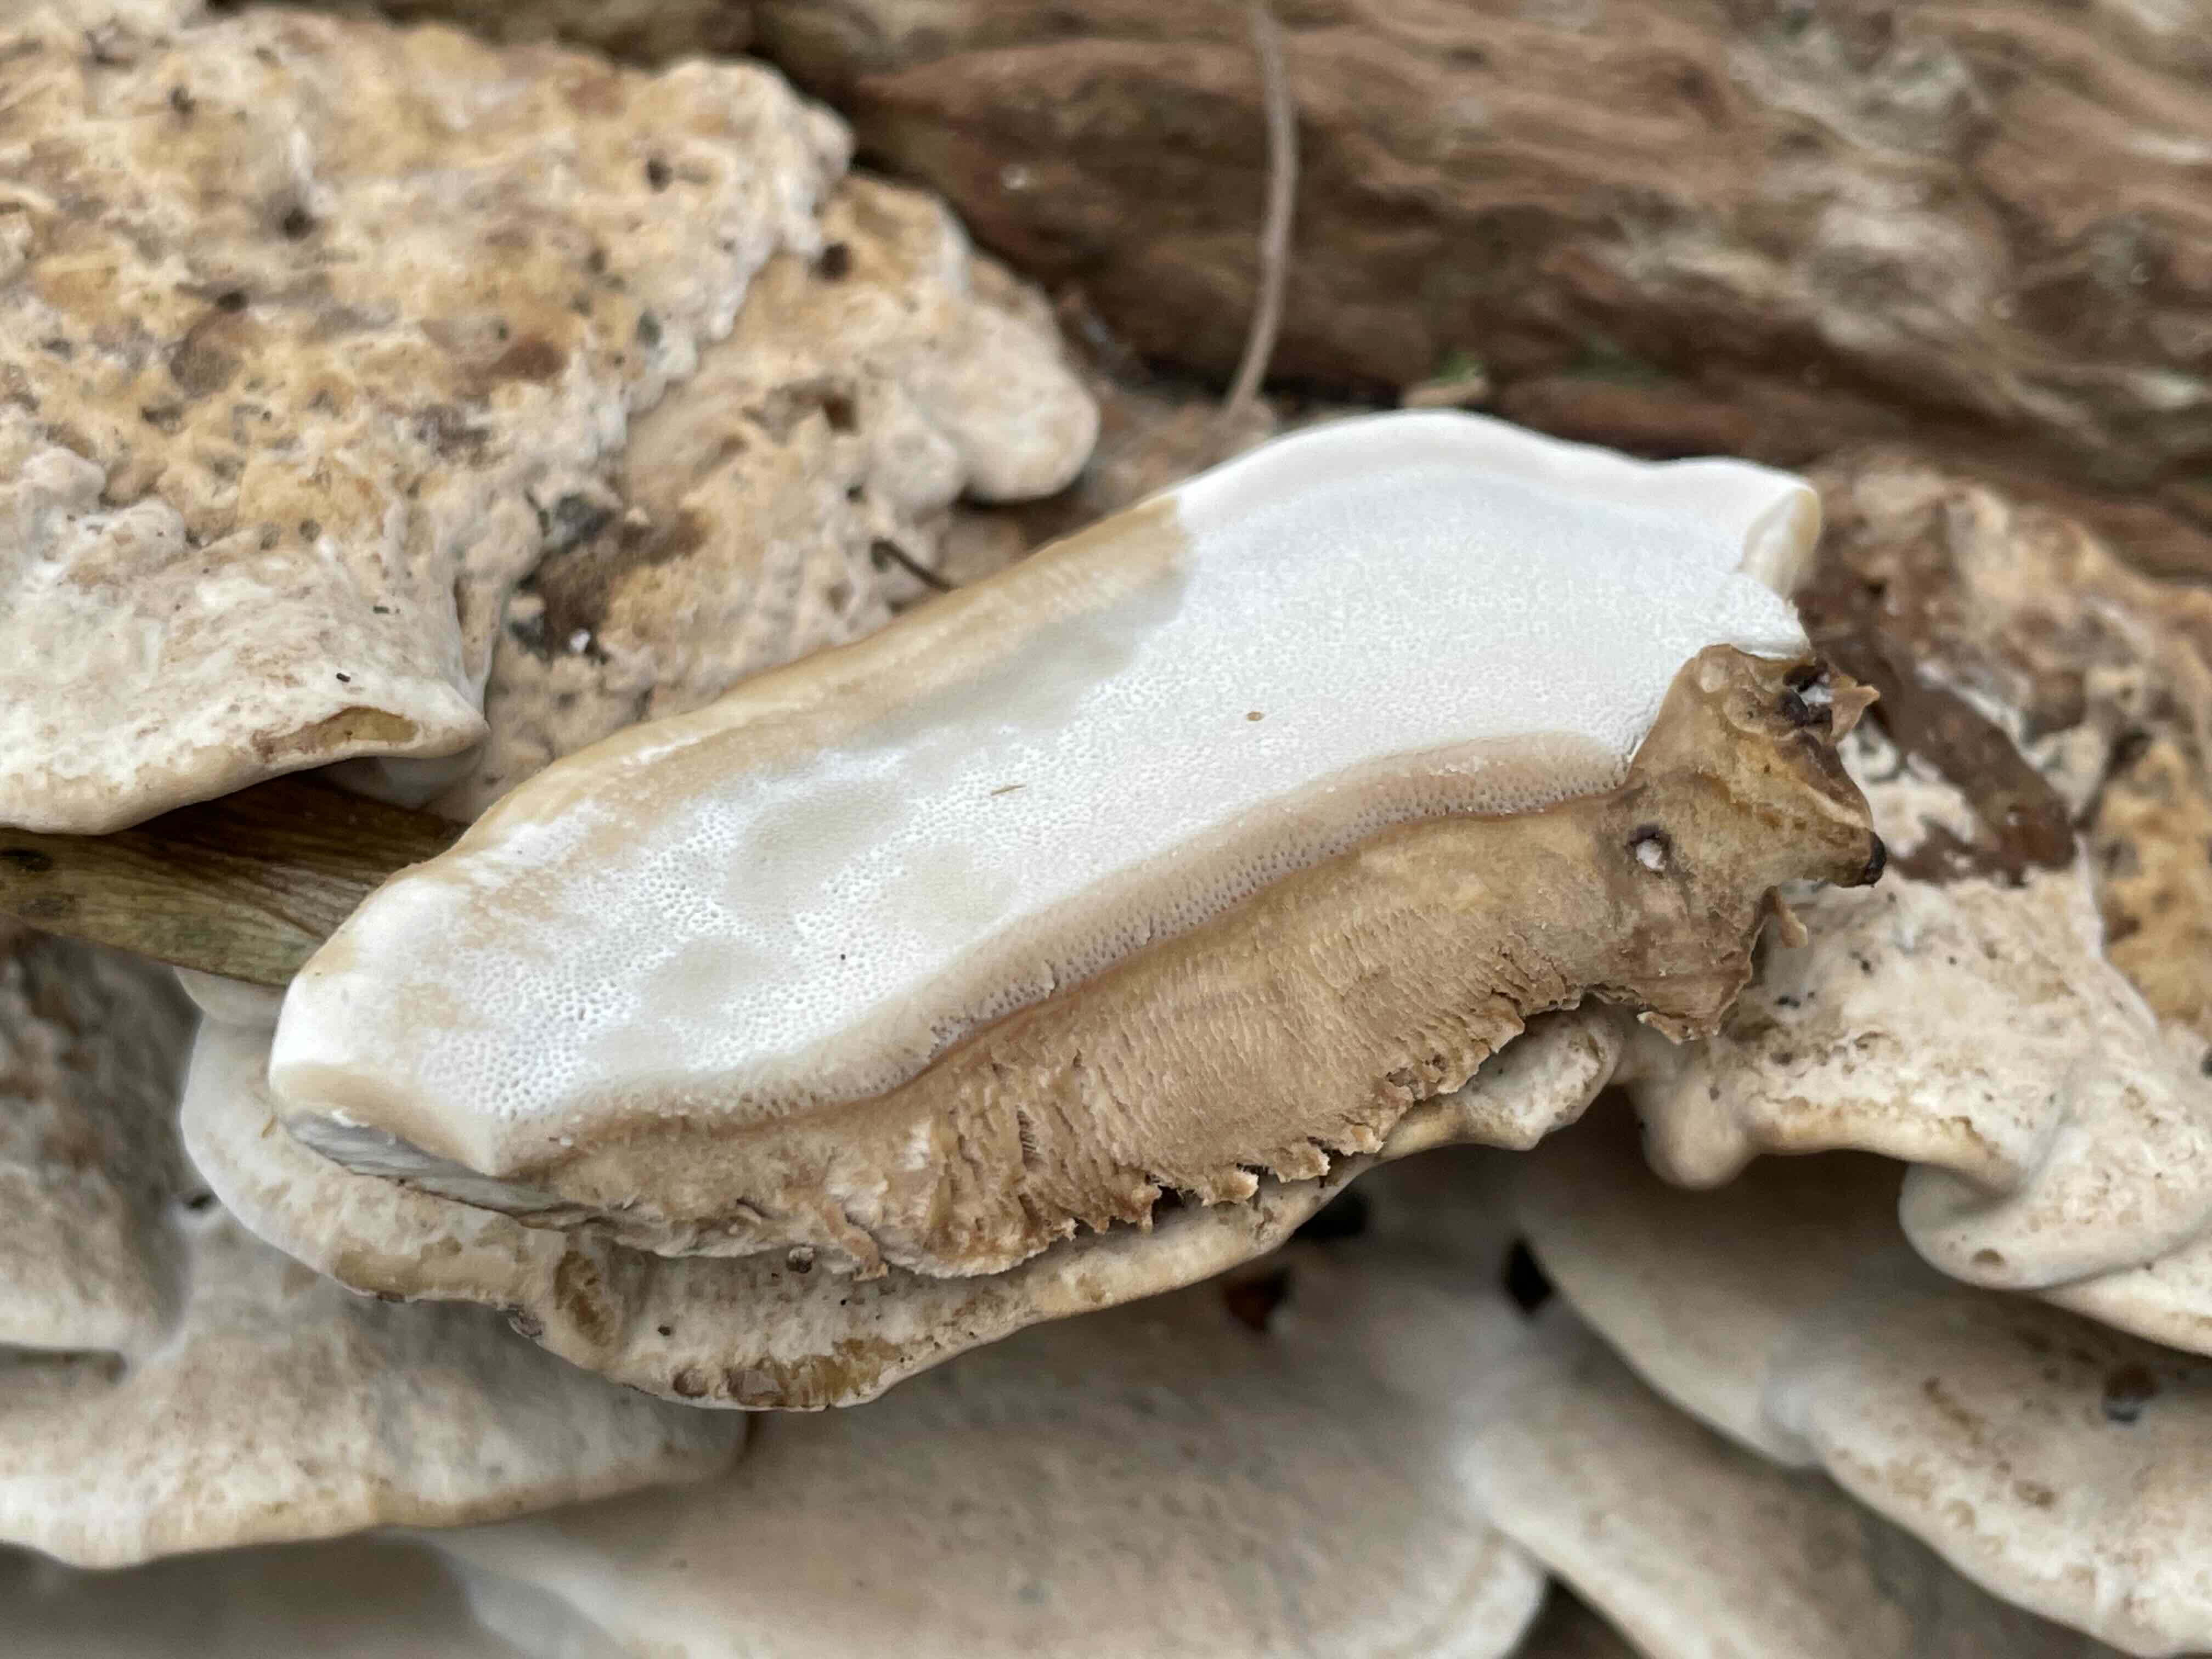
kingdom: Fungi
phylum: Basidiomycota
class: Agaricomycetes
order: Polyporales
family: Phanerochaetaceae
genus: Bjerkandera
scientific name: Bjerkandera fumosa
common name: grågul sodporesvamp
